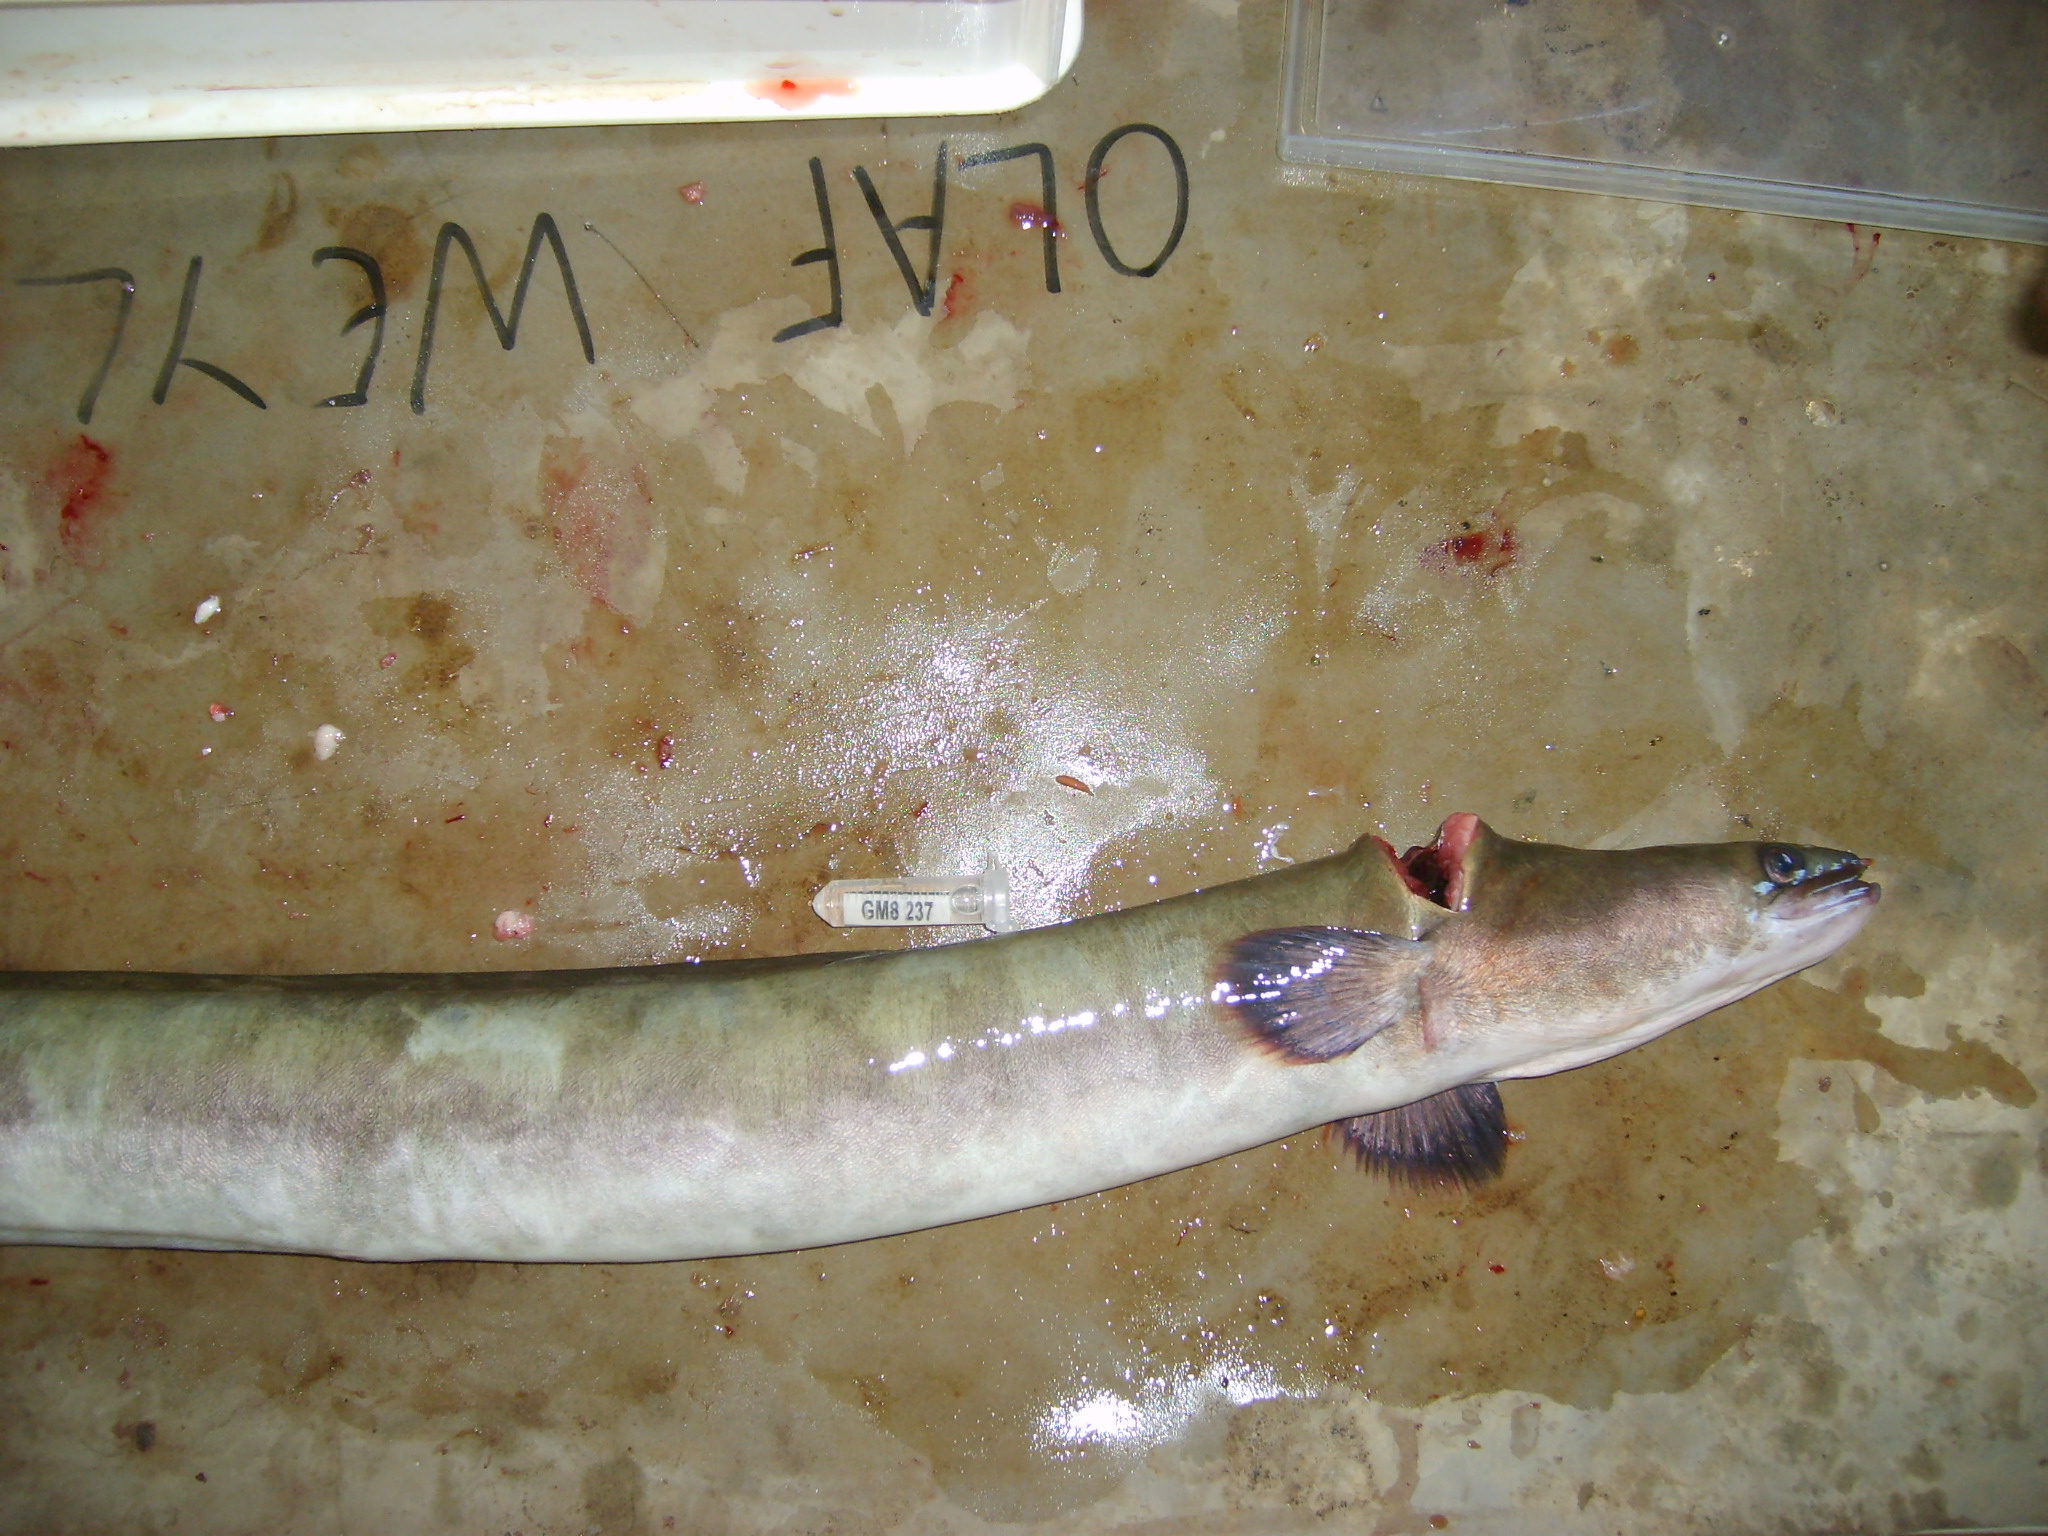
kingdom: Animalia
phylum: Chordata
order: Anguilliformes
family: Anguillidae
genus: Anguilla
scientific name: Anguilla mossambica
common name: African longfin eel
